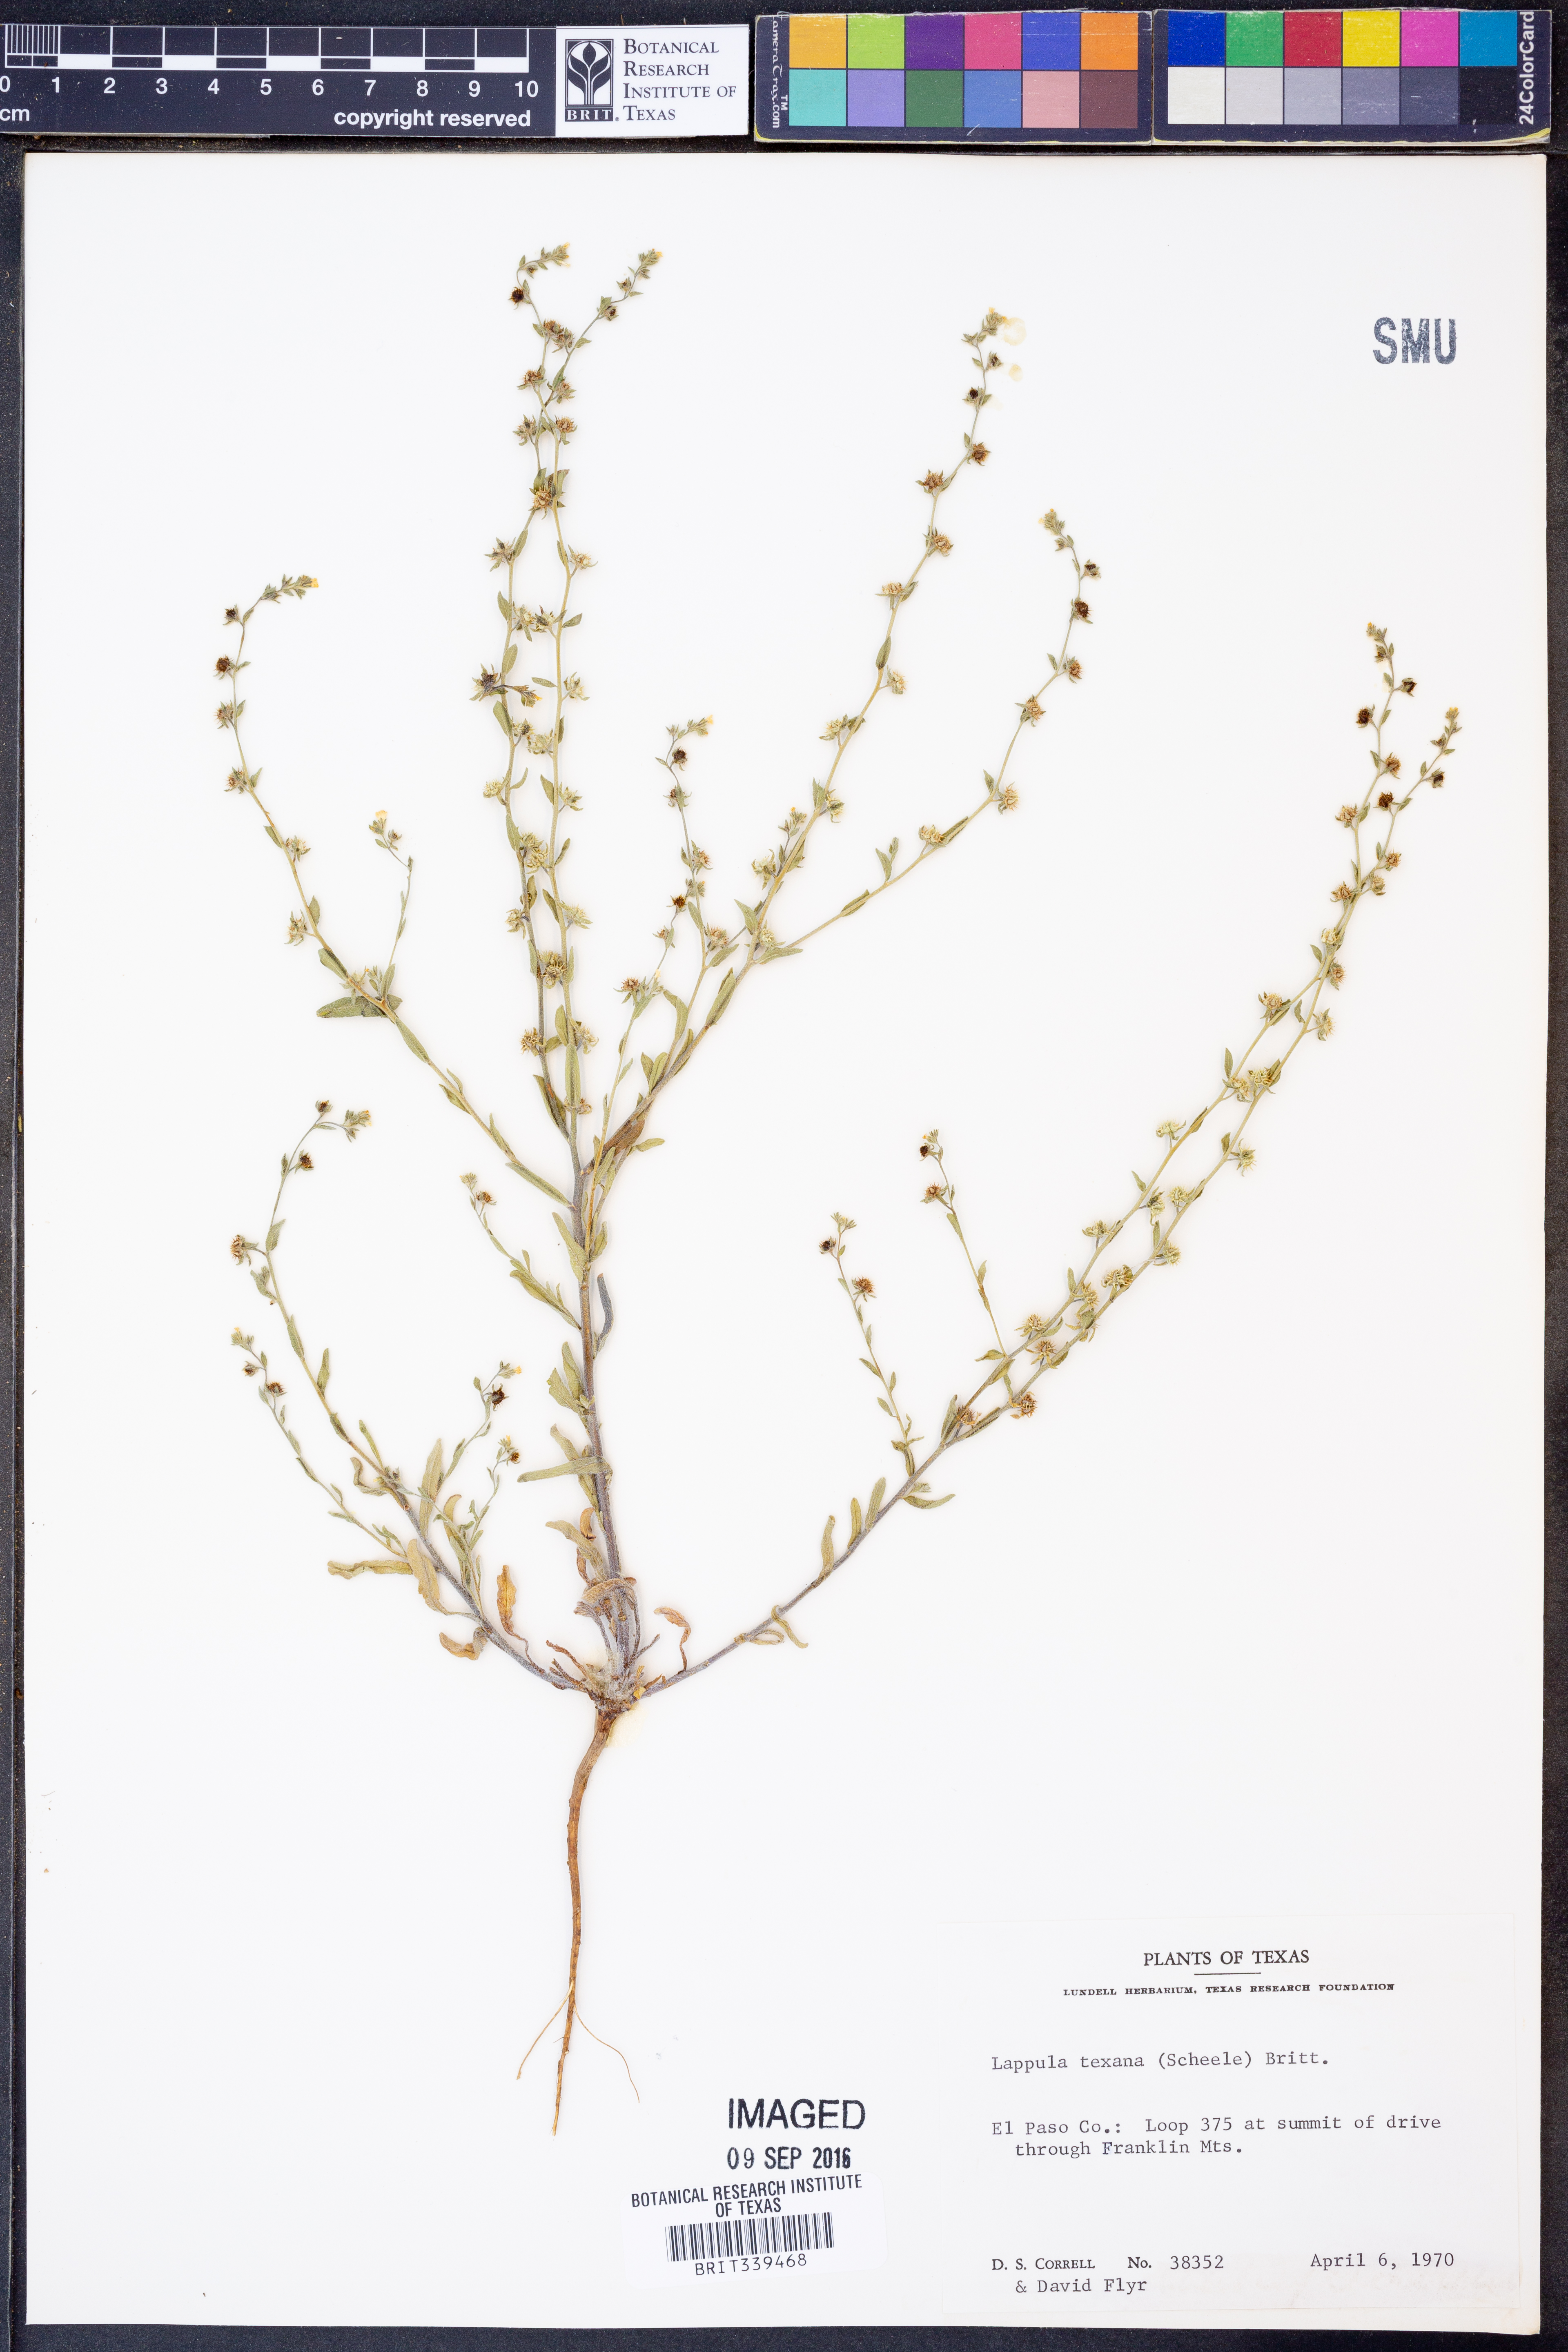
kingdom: Plantae
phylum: Tracheophyta
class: Magnoliopsida
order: Boraginales
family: Boraginaceae
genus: Lappula
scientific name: Lappula occidentalis
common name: Western stickseed
